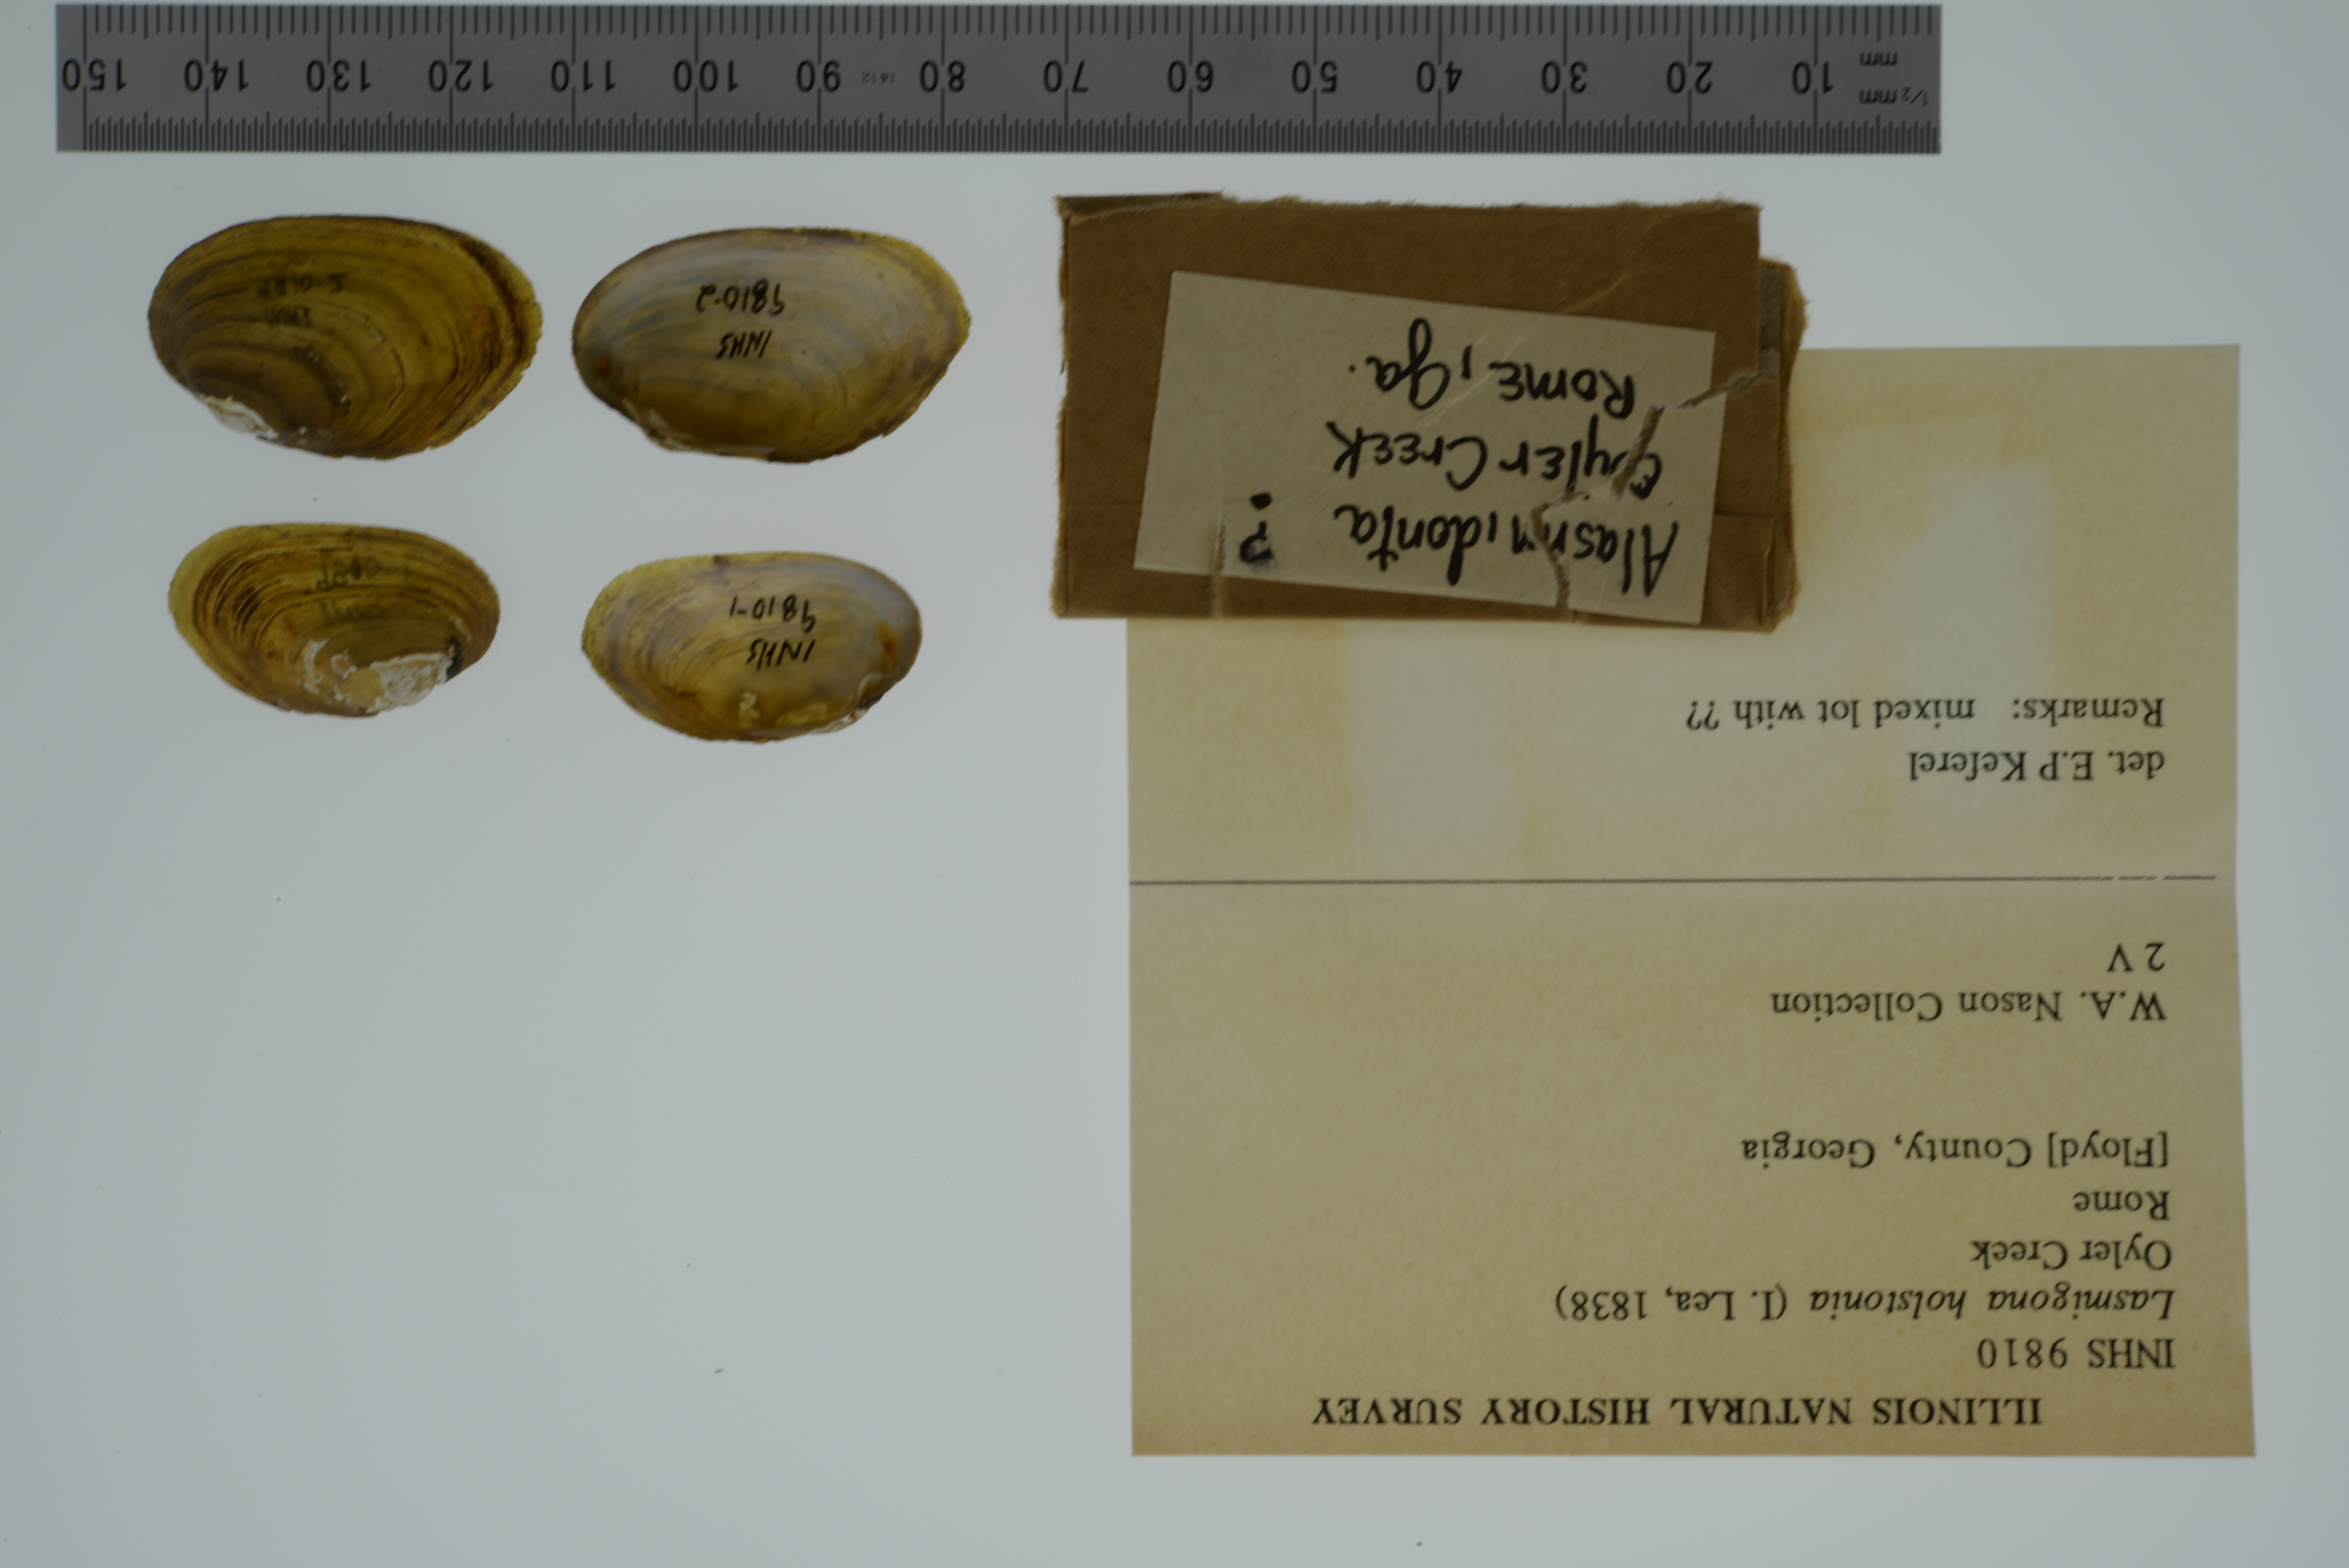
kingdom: Animalia
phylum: Mollusca
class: Bivalvia
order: Unionida
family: Unionidae
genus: Lasmigona
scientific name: Lasmigona holstonia
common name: Tennessee heelsplitter
